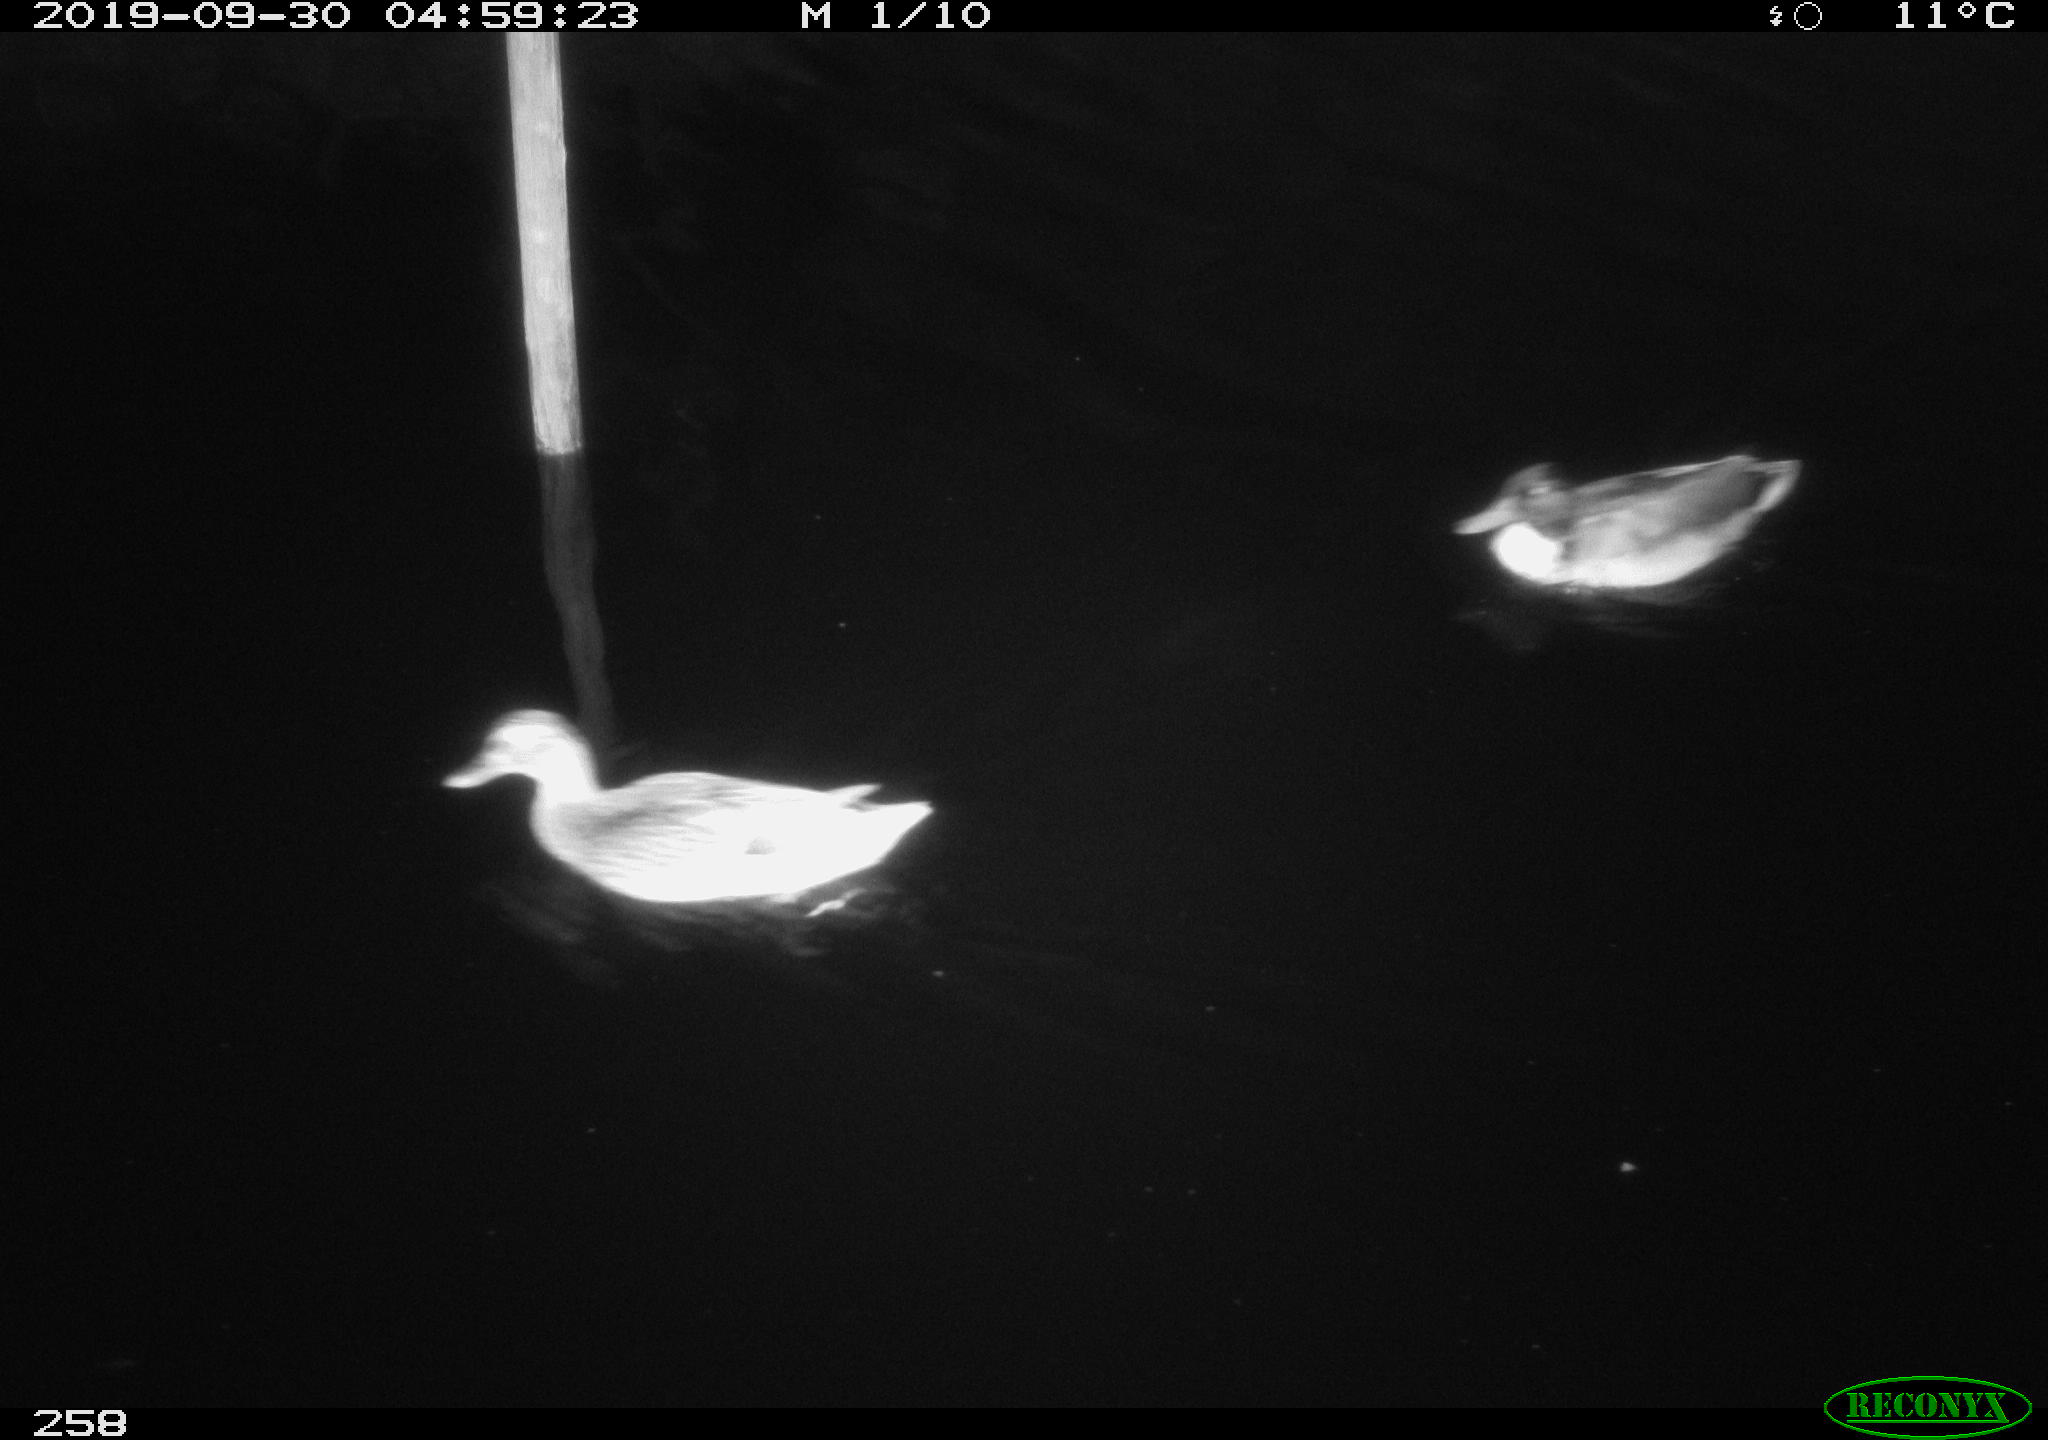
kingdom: Animalia
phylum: Chordata
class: Aves
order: Anseriformes
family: Anatidae
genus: Anas
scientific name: Anas platyrhynchos
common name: Mallard
